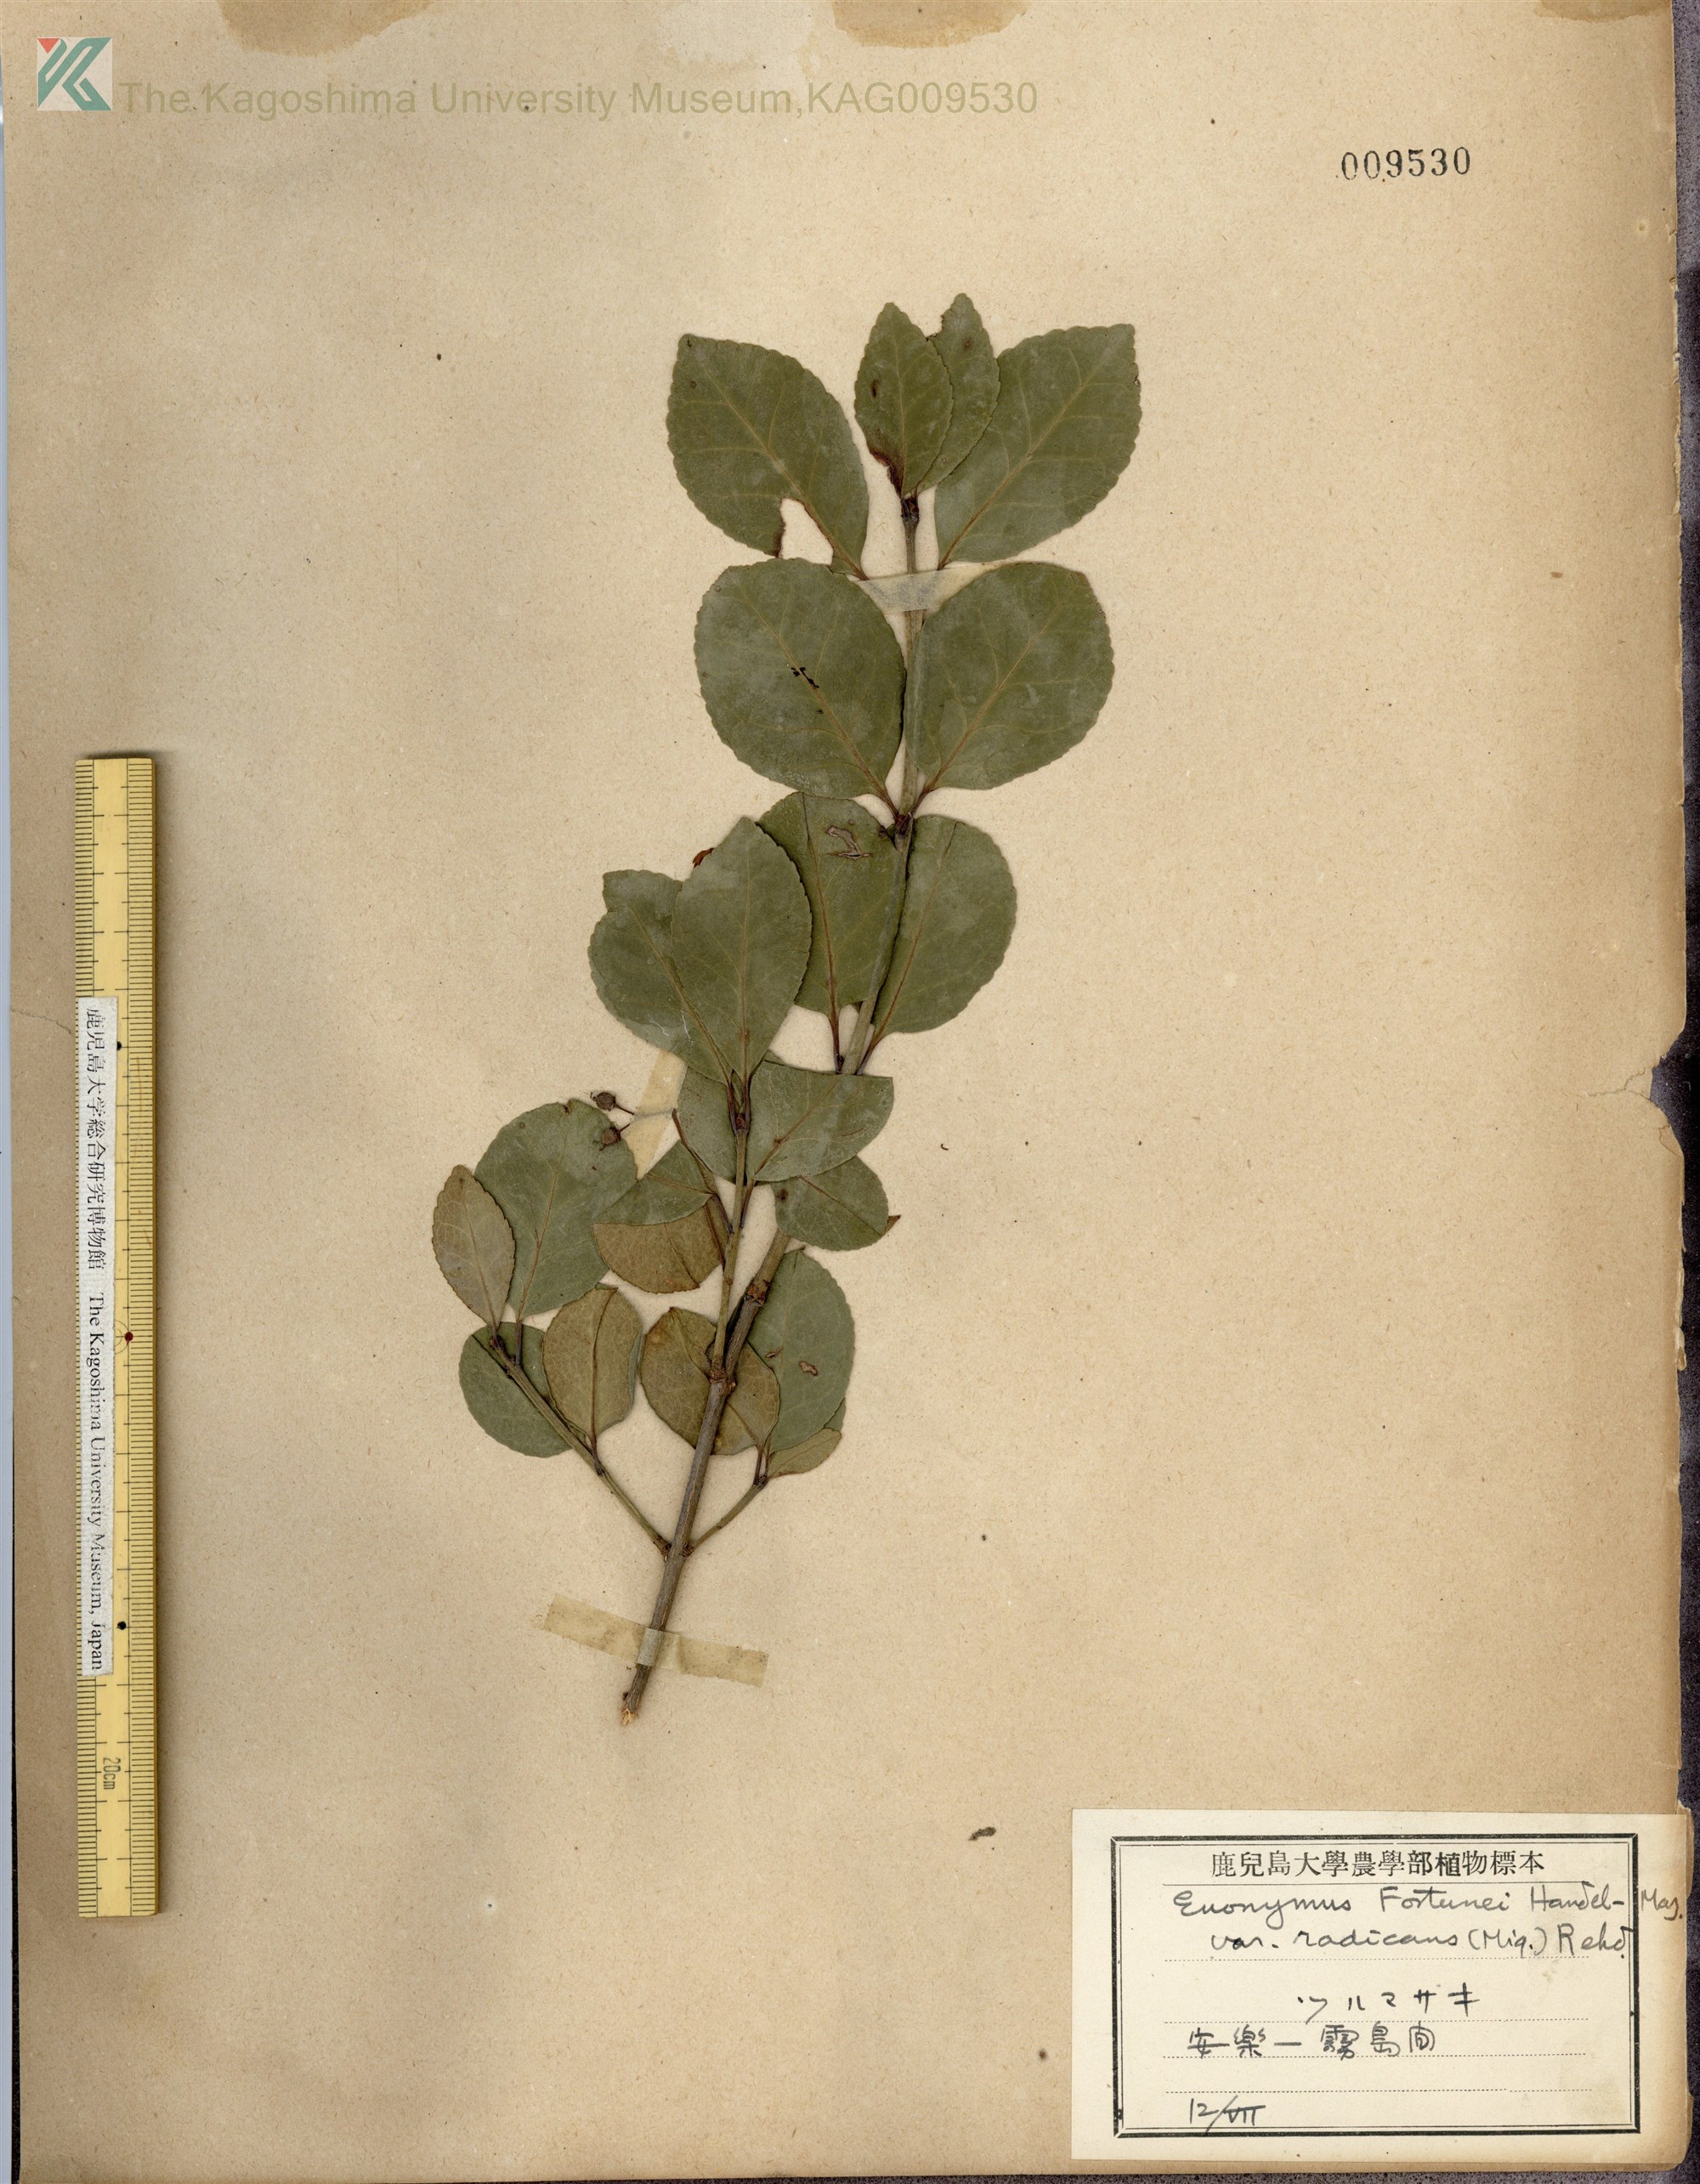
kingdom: Plantae
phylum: Tracheophyta
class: Magnoliopsida
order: Celastrales
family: Celastraceae
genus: Euonymus
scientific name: Euonymus fortunei
